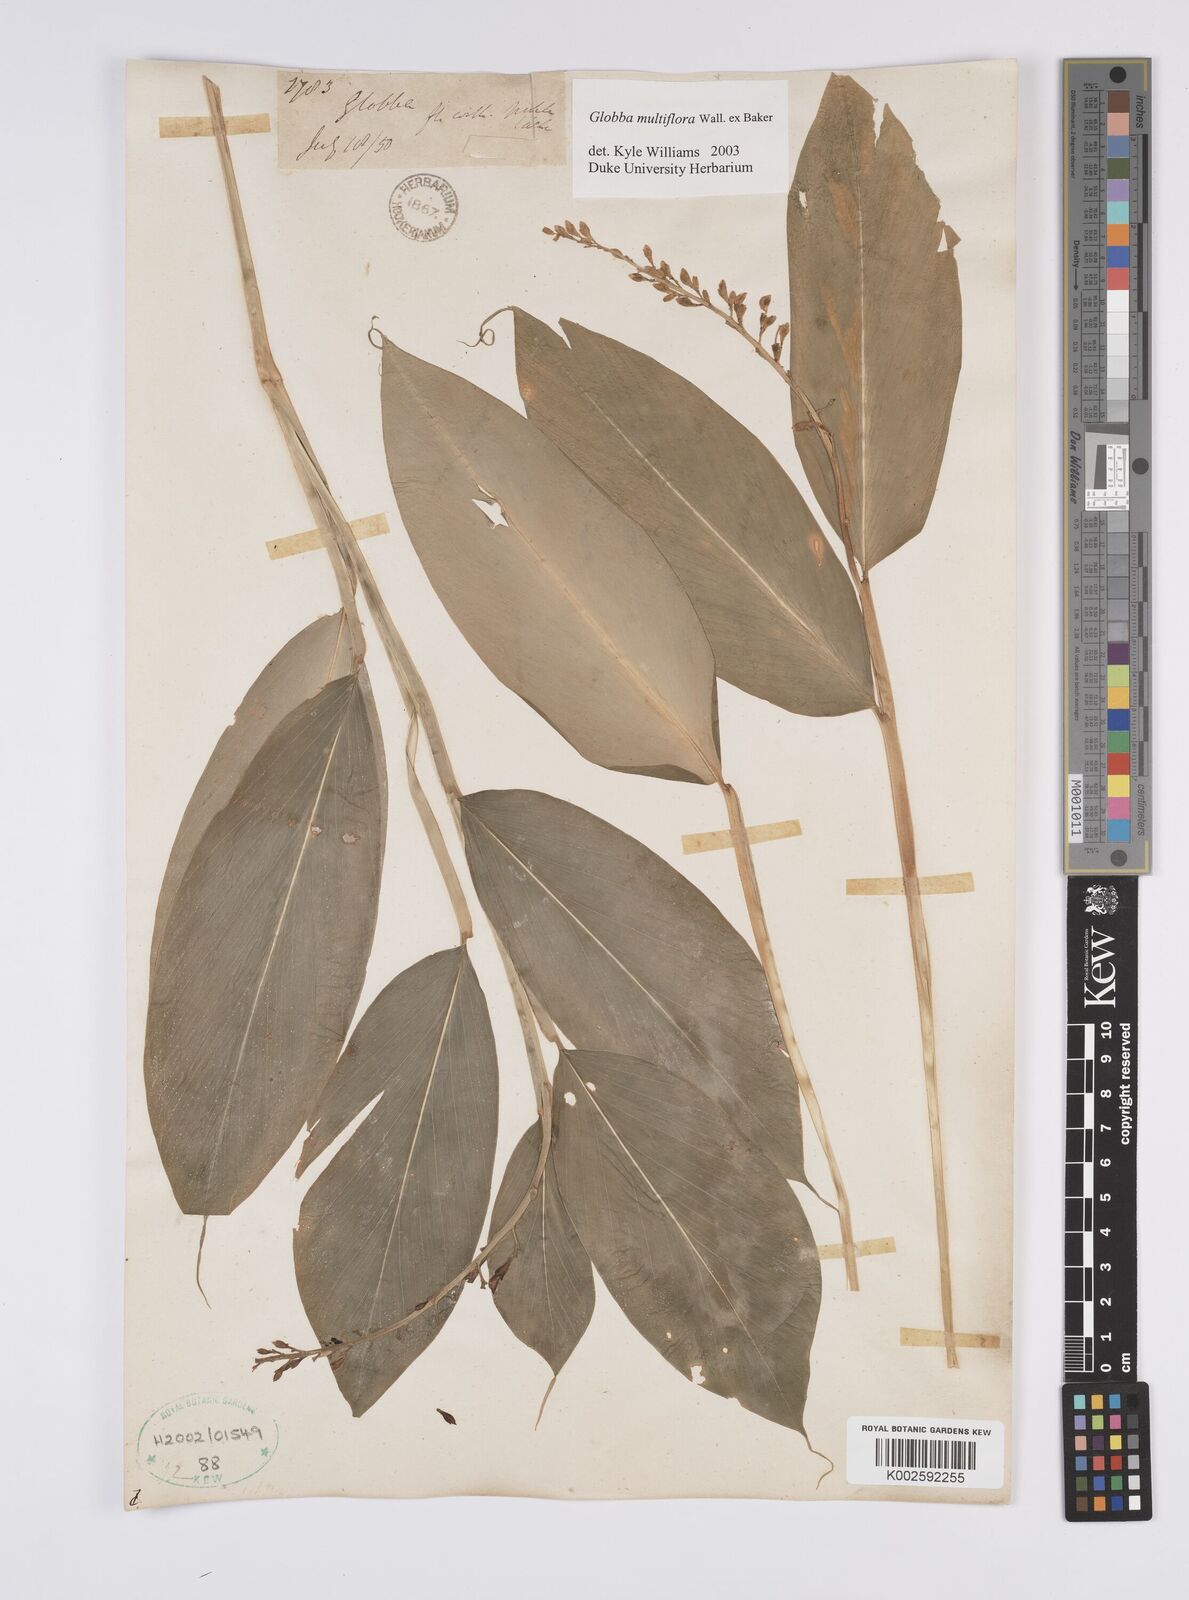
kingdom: Plantae
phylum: Tracheophyta
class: Liliopsida
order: Zingiberales
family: Zingiberaceae
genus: Globba
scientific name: Globba multiflora
